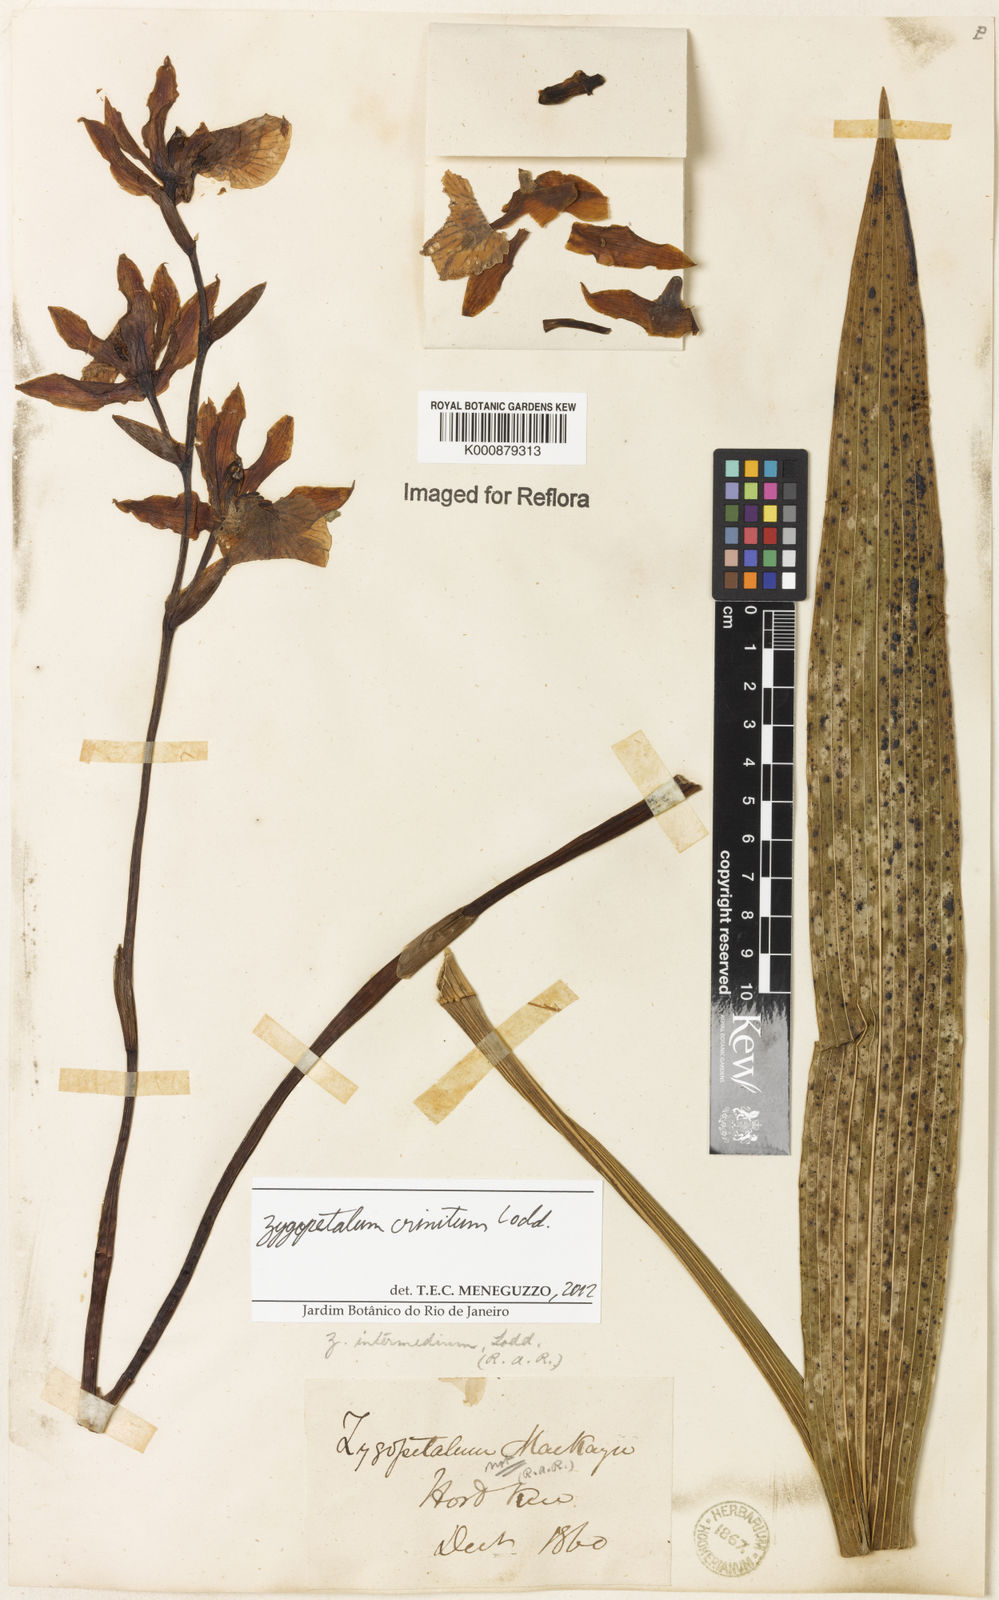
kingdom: Plantae
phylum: Tracheophyta
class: Liliopsida
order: Asparagales
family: Orchidaceae
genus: Zygopetalum
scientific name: Zygopetalum crinitum
